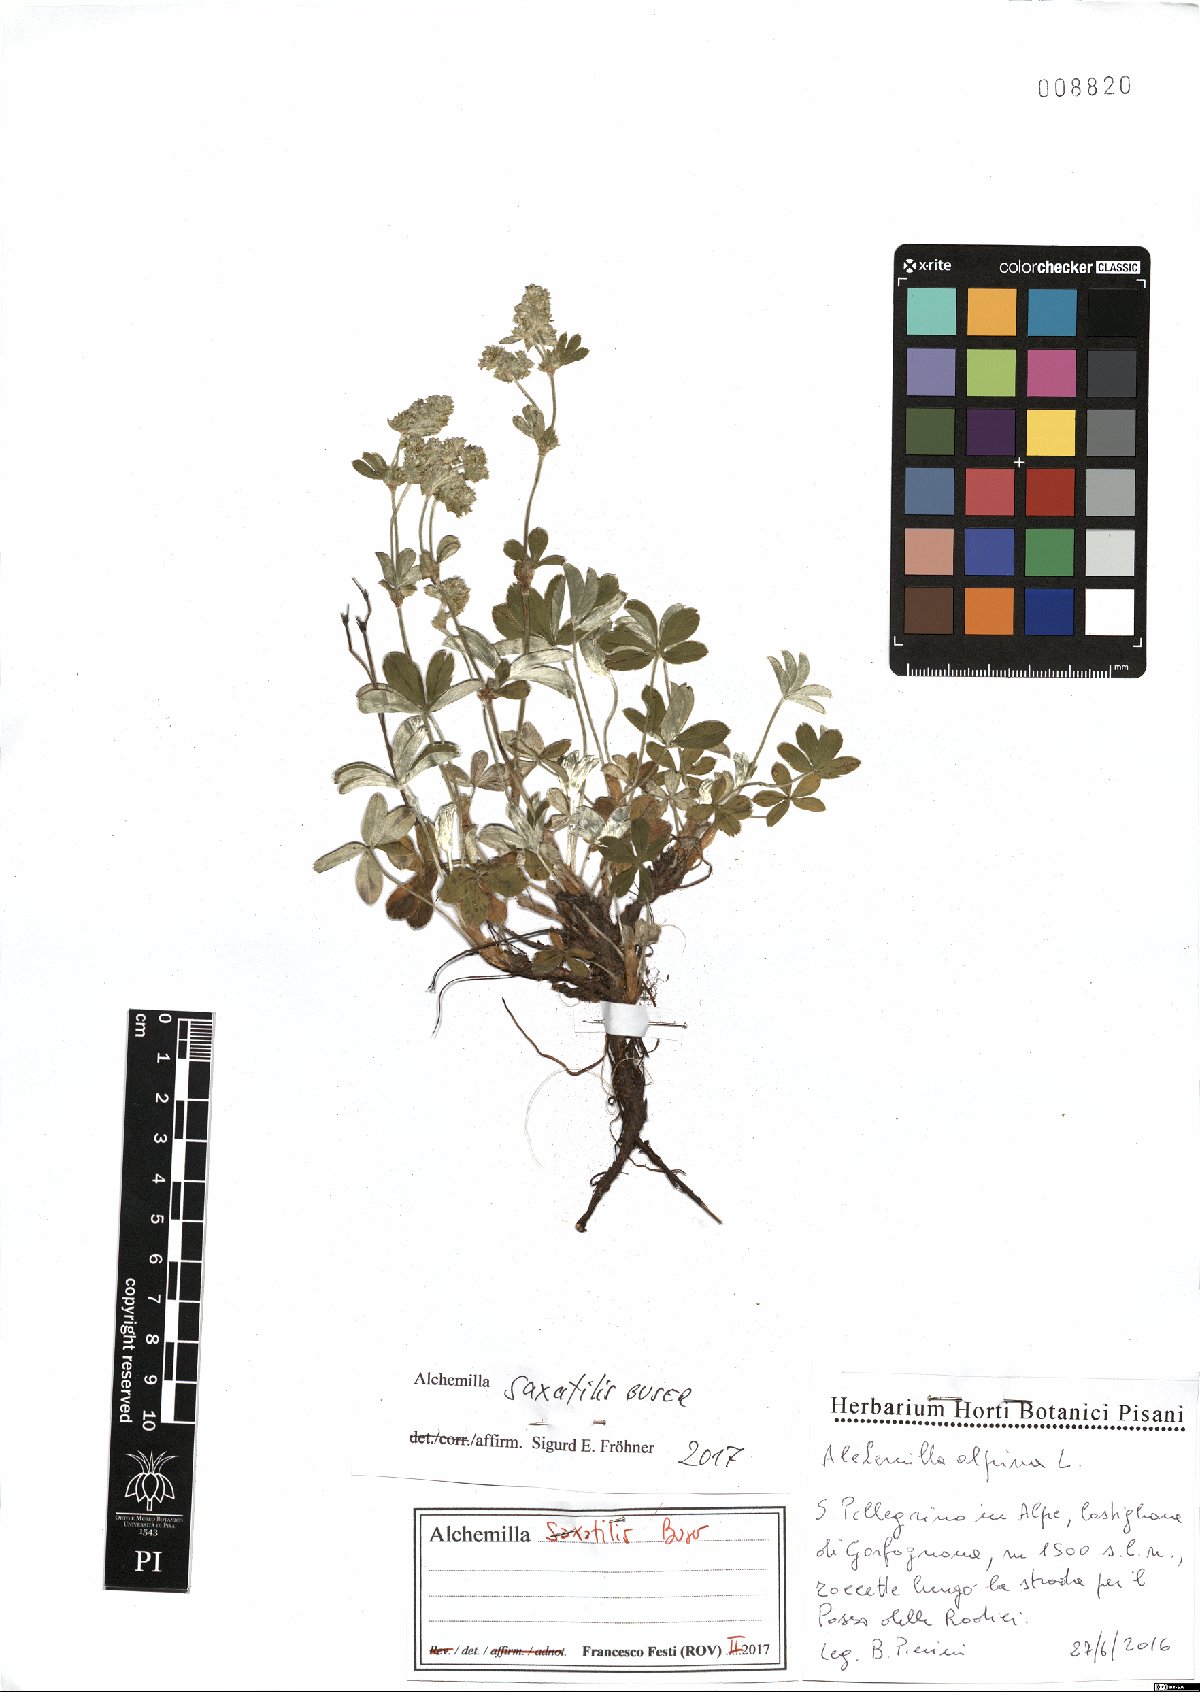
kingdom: Plantae
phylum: Tracheophyta
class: Magnoliopsida
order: Rosales
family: Rosaceae
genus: Alchemilla
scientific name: Alchemilla saxatilis
